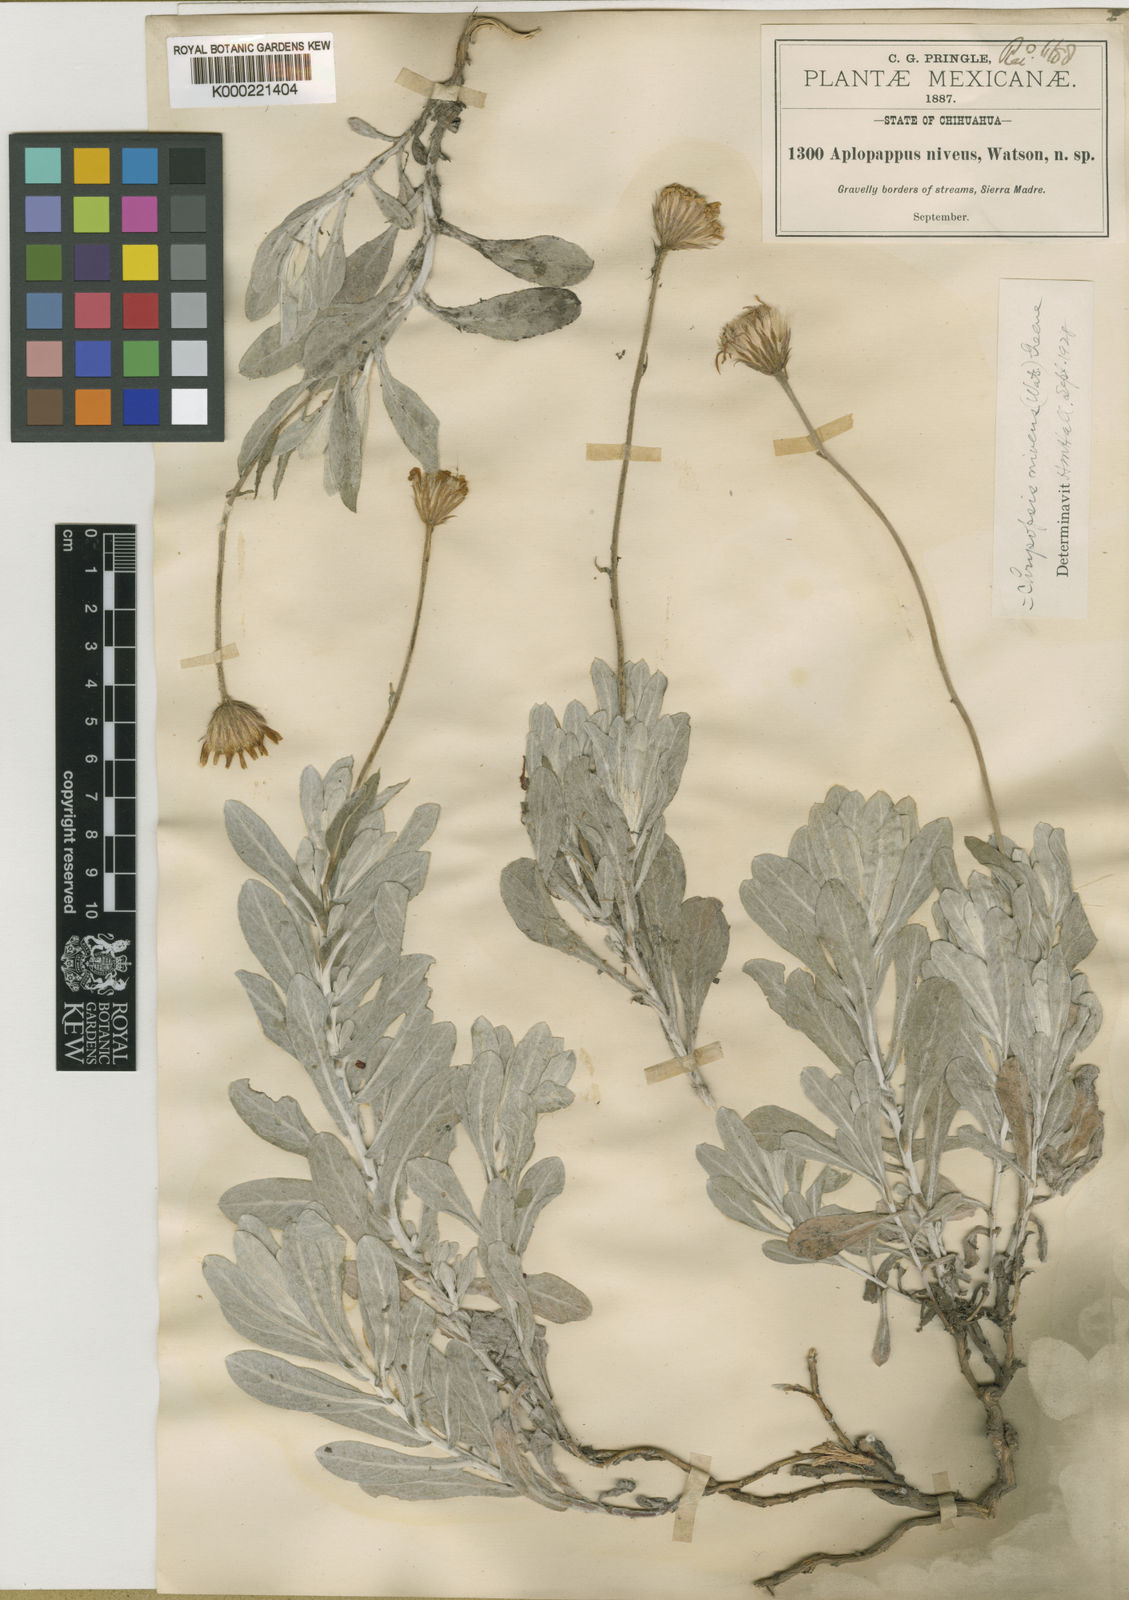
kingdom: Plantae
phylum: Tracheophyta
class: Magnoliopsida
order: Asterales
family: Asteraceae
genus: Heterotheca
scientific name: Heterotheca
